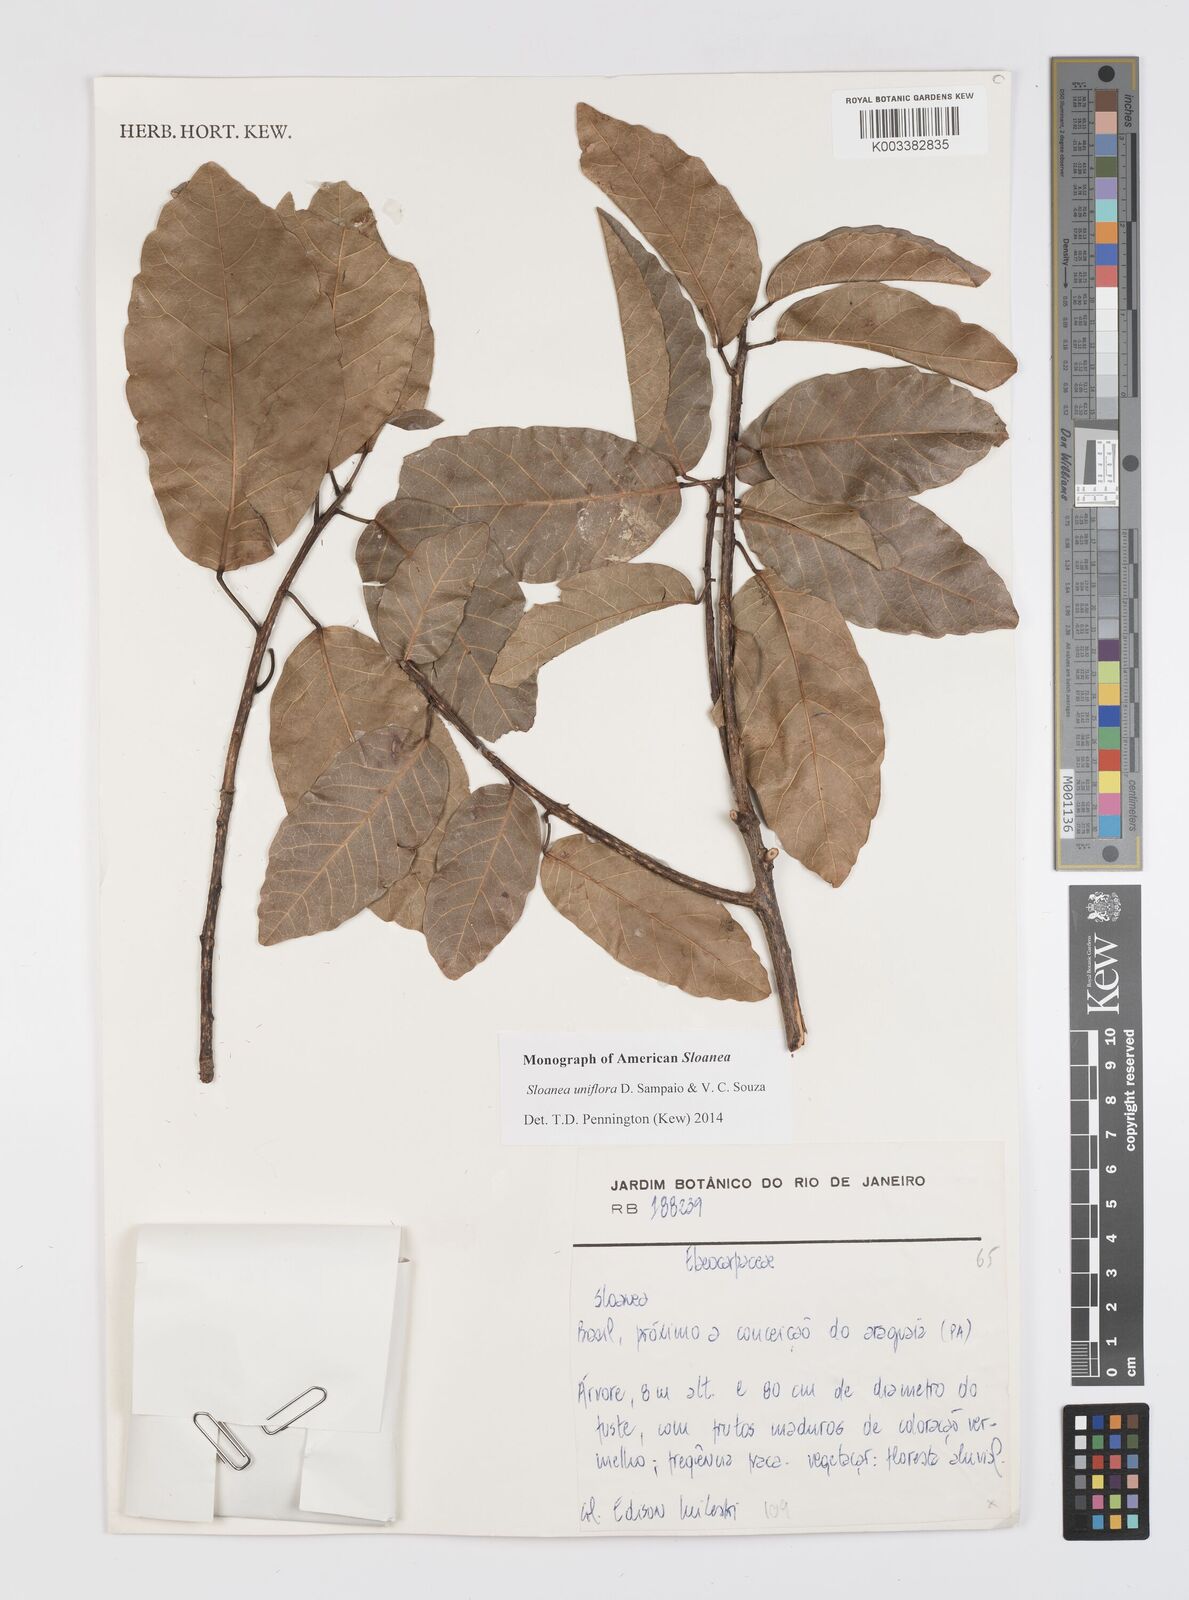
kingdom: Plantae
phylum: Tracheophyta
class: Magnoliopsida
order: Oxalidales
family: Elaeocarpaceae
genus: Sloanea
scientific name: Sloanea uniflora
